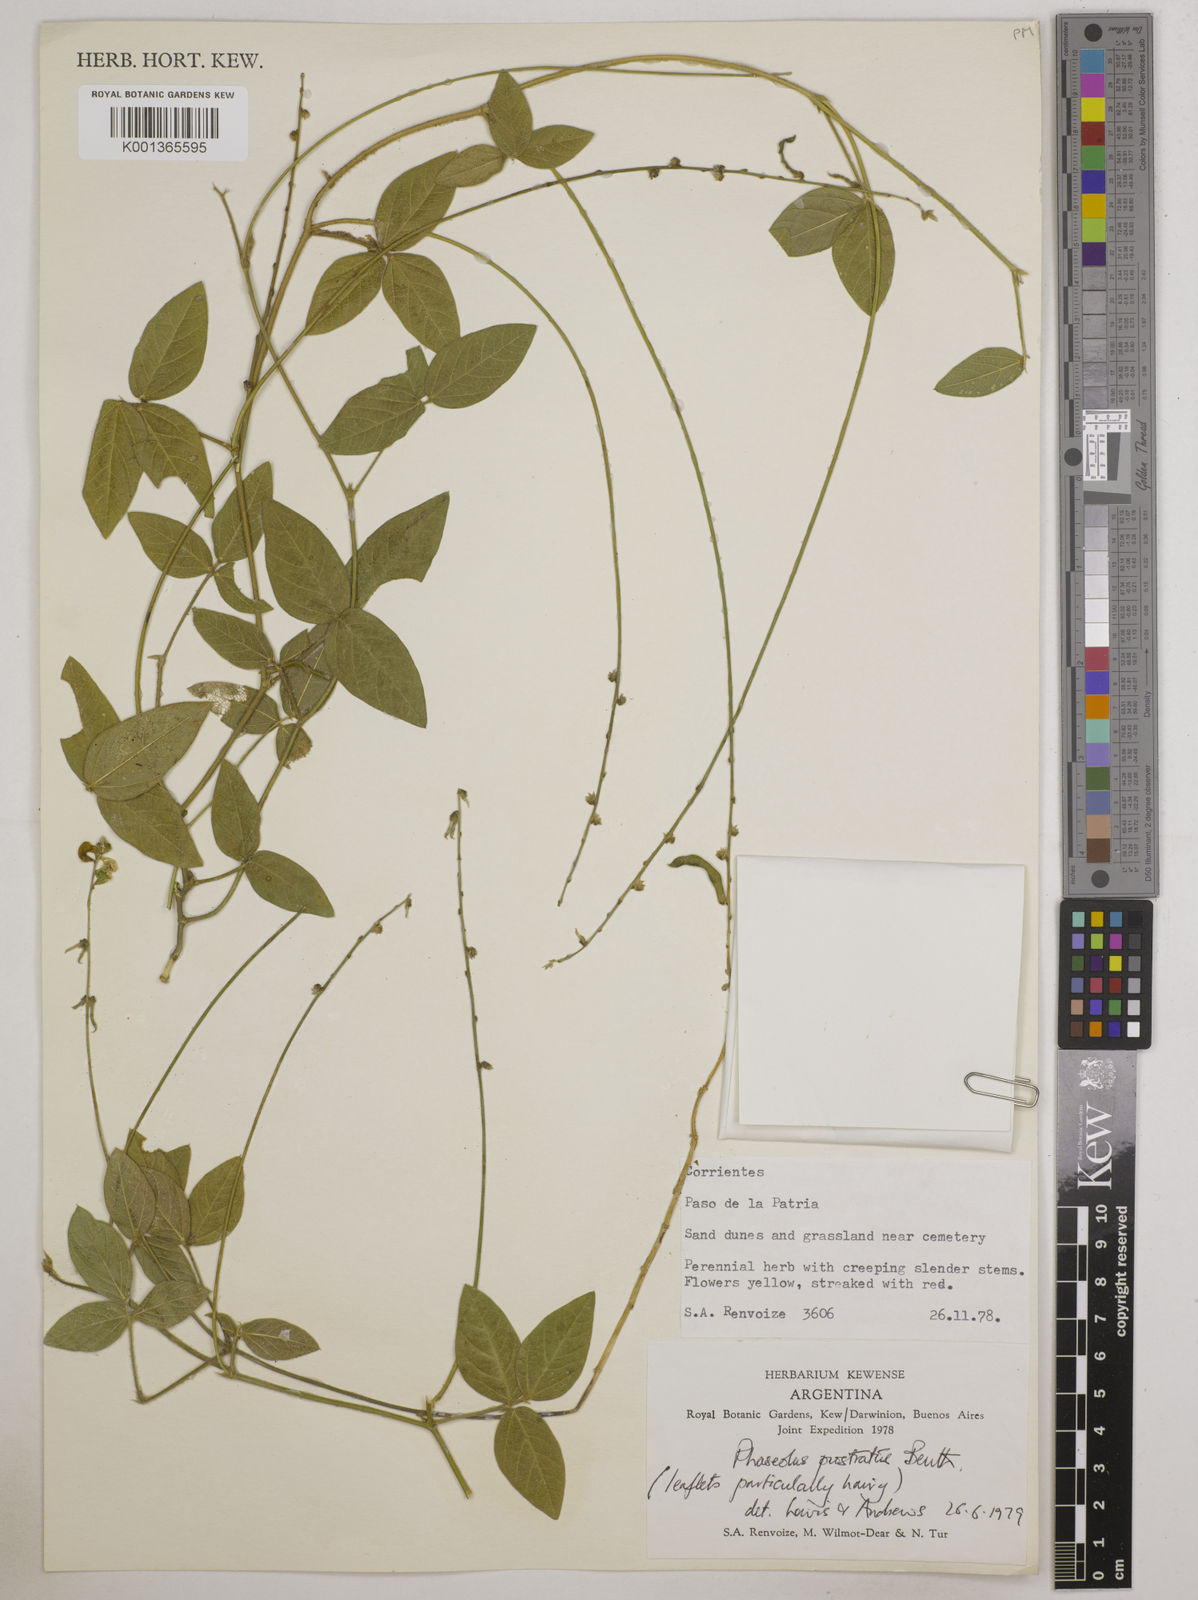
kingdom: Plantae
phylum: Tracheophyta
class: Magnoliopsida
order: Fabales
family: Fabaceae
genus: Macroptilium
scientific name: Macroptilium prostratum
